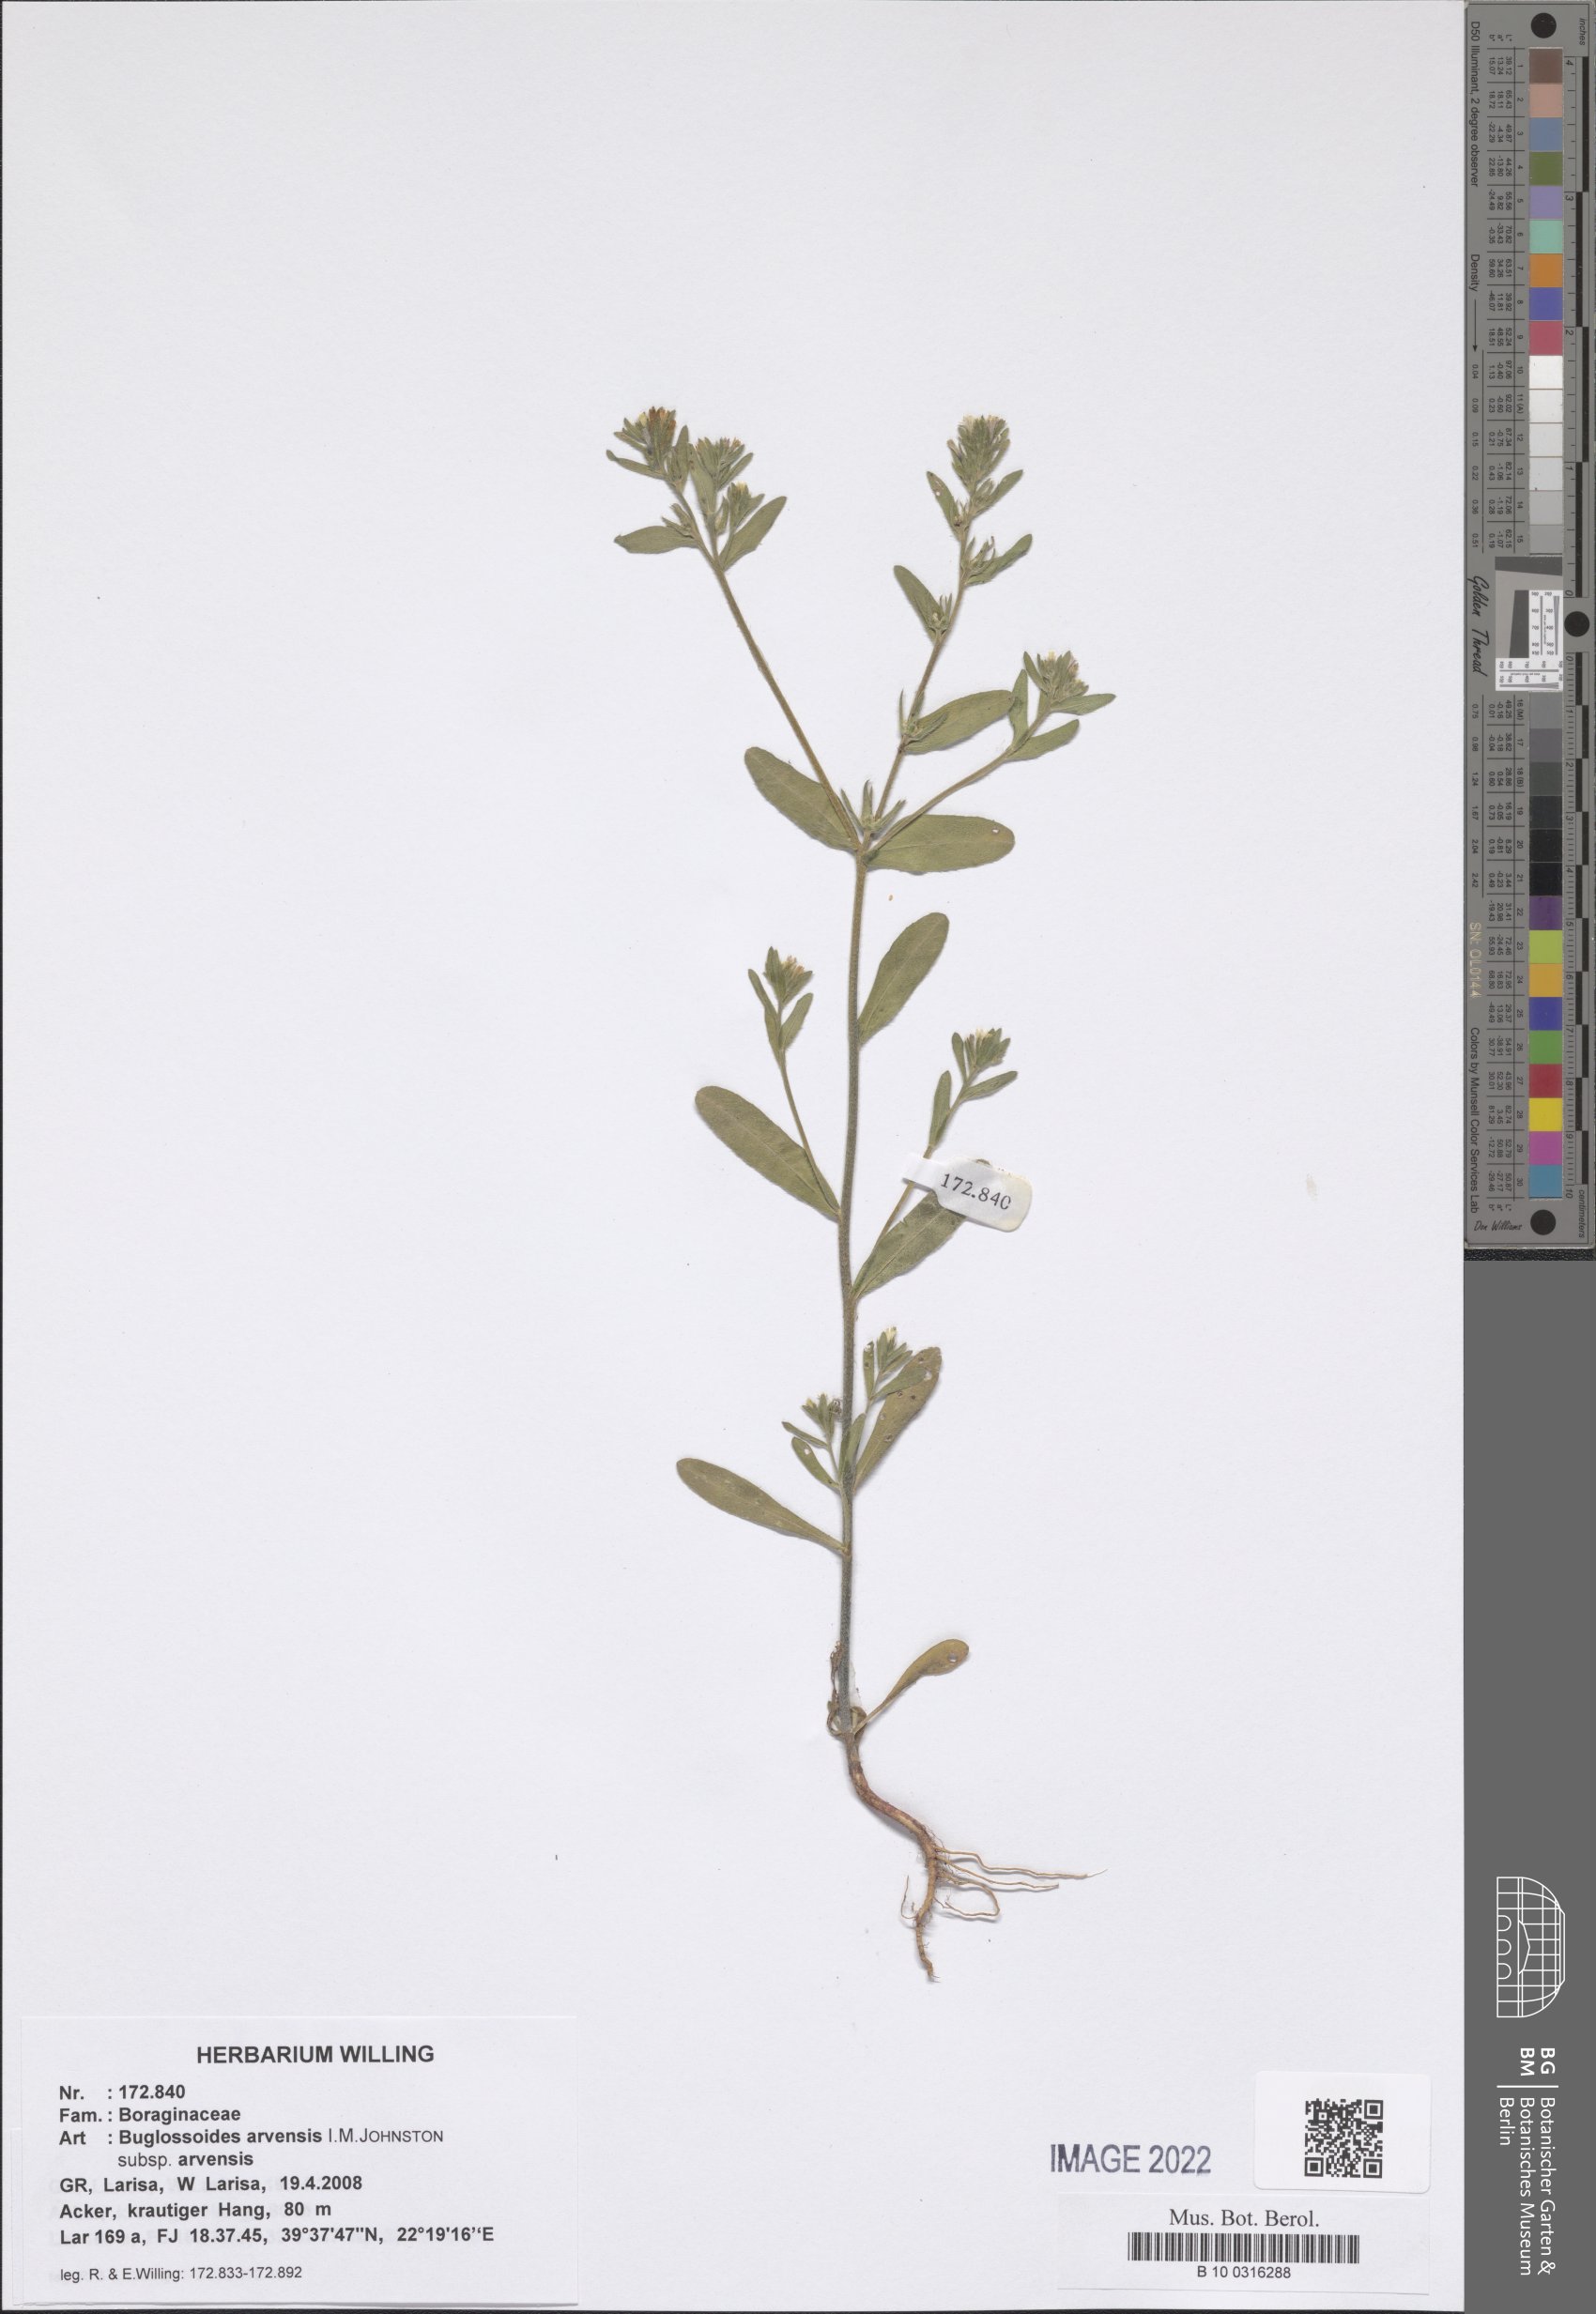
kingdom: Plantae
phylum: Tracheophyta
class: Magnoliopsida
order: Boraginales
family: Boraginaceae
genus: Buglossoides
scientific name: Buglossoides arvensis
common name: Corn gromwell
